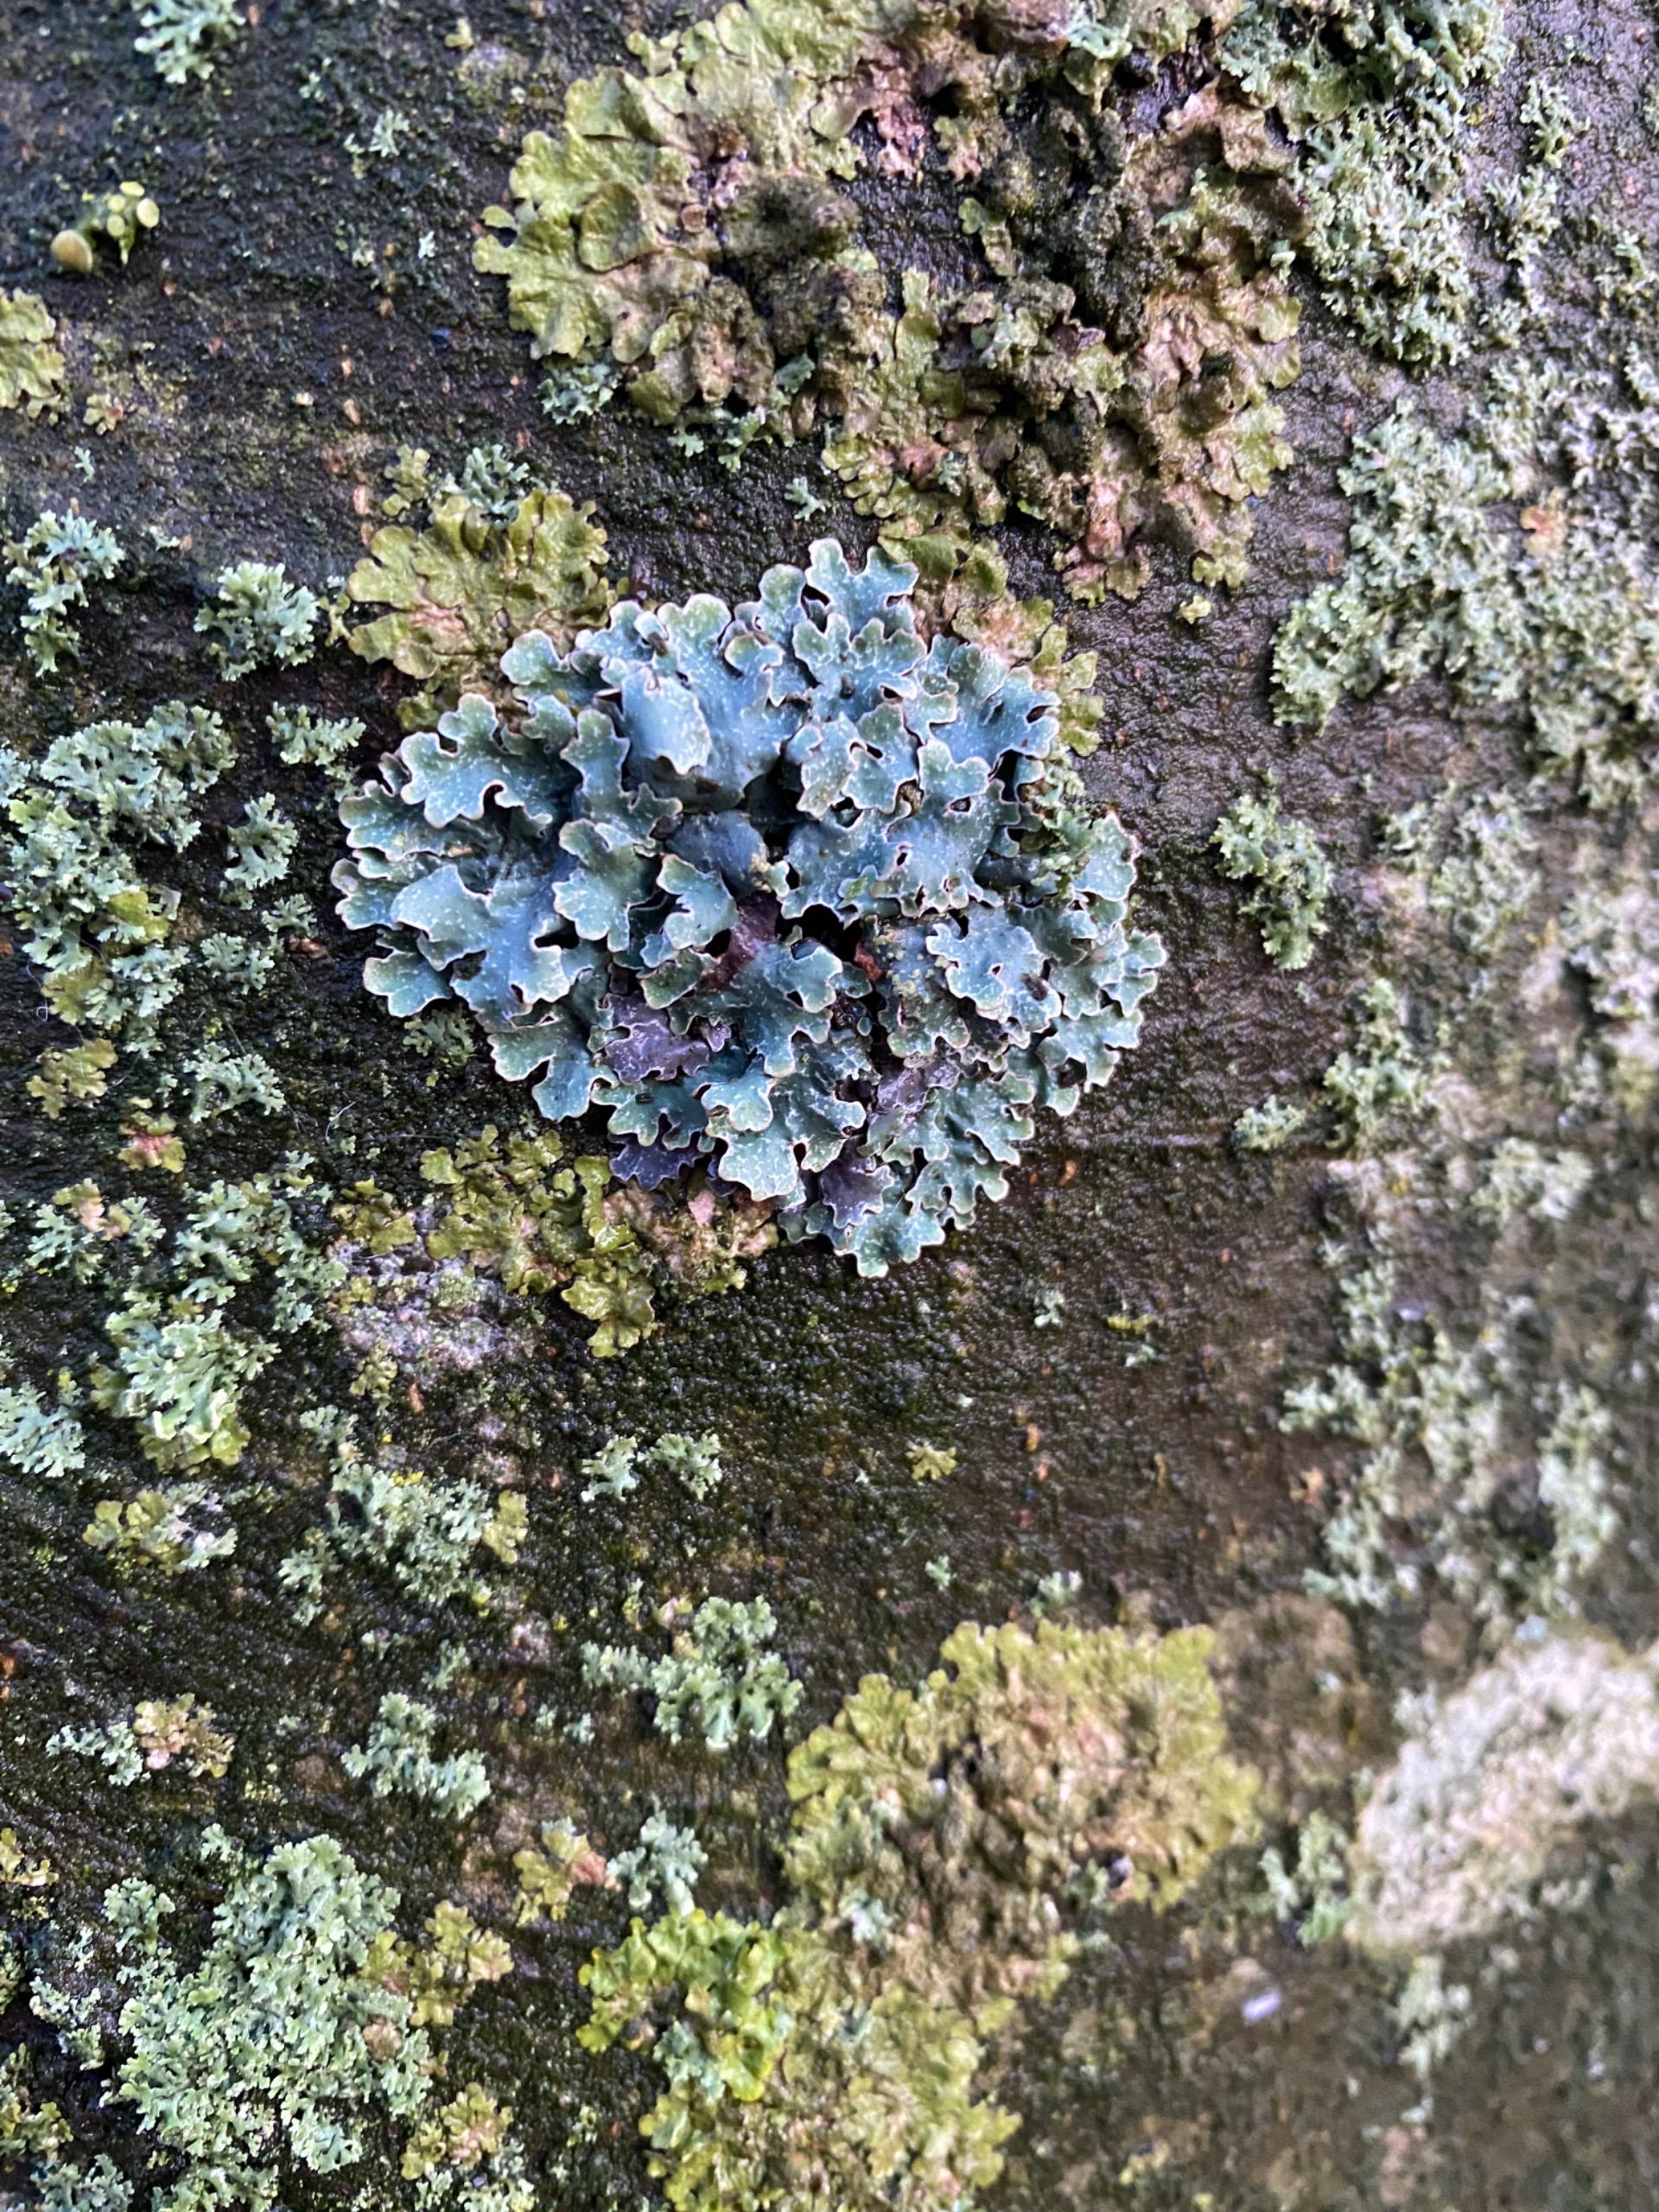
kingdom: Fungi
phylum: Ascomycota
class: Lecanoromycetes
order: Lecanorales
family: Parmeliaceae
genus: Parmelia
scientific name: Parmelia sulcata
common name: Rynket skållav
